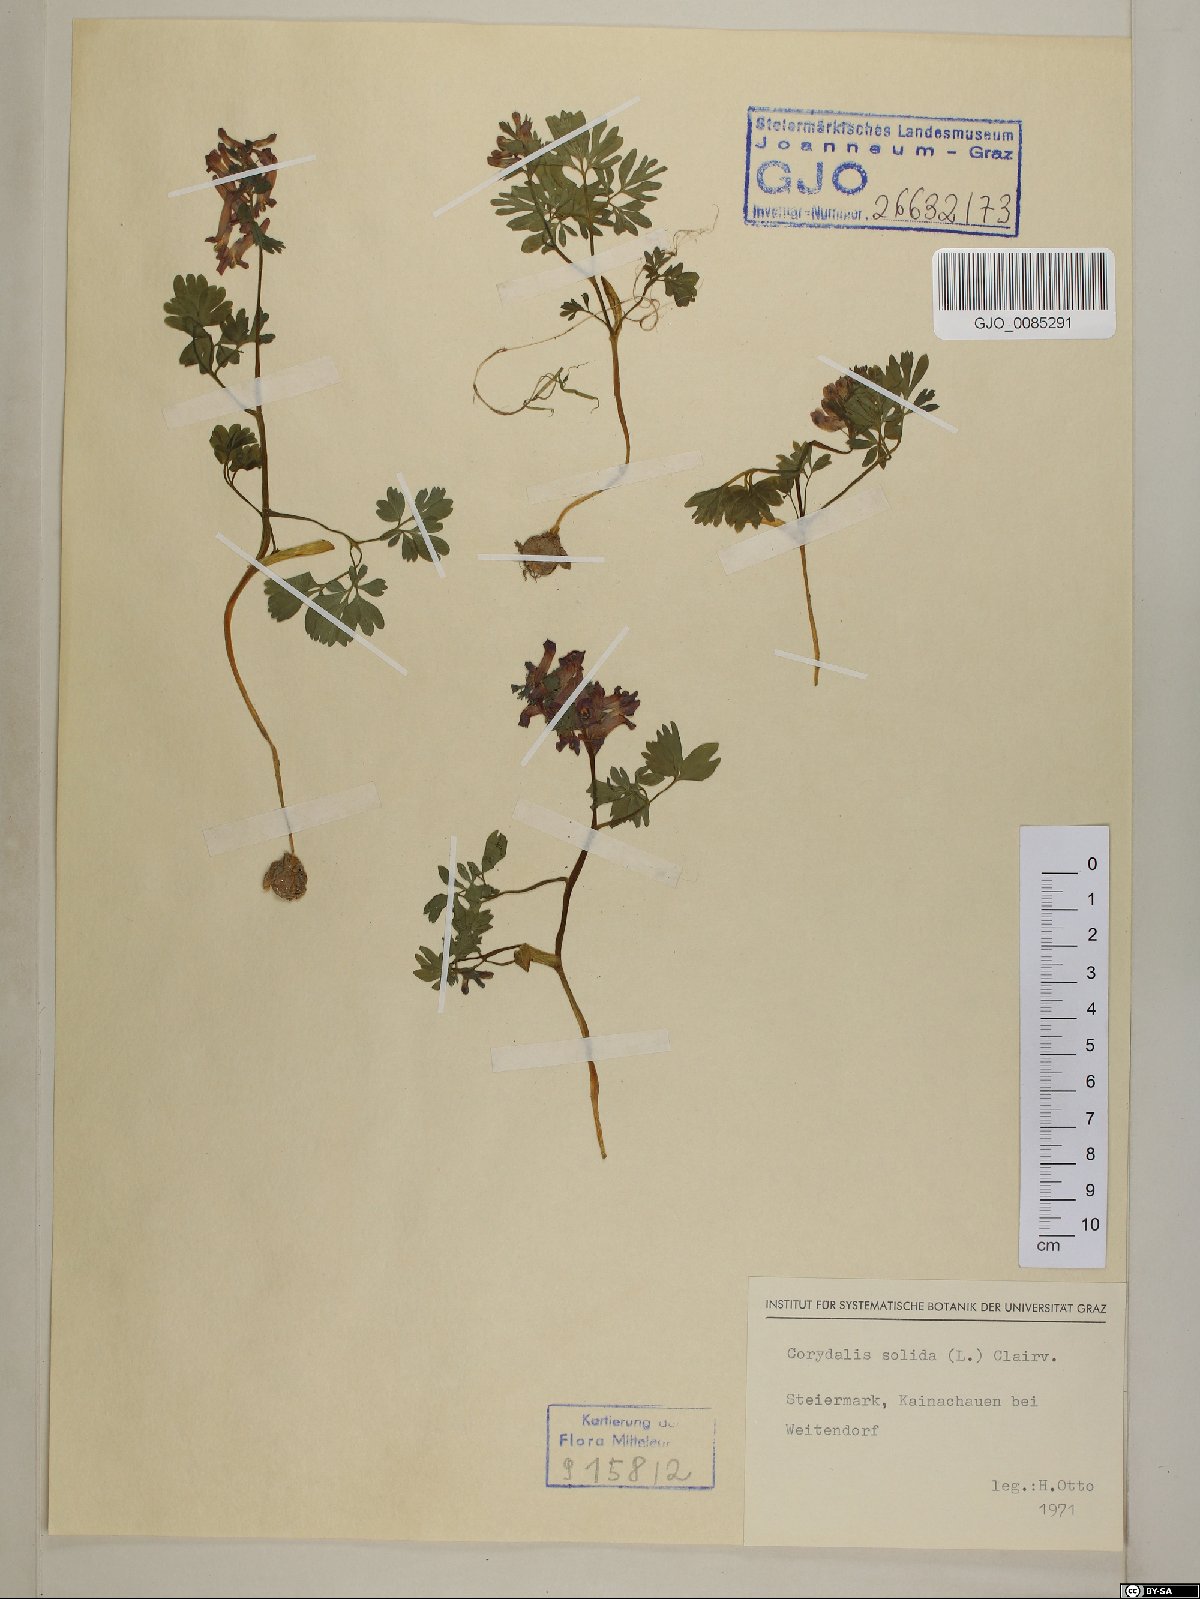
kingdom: Plantae
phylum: Tracheophyta
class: Magnoliopsida
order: Ranunculales
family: Papaveraceae
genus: Corydalis
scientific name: Corydalis solida
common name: Bird-in-a-bush
